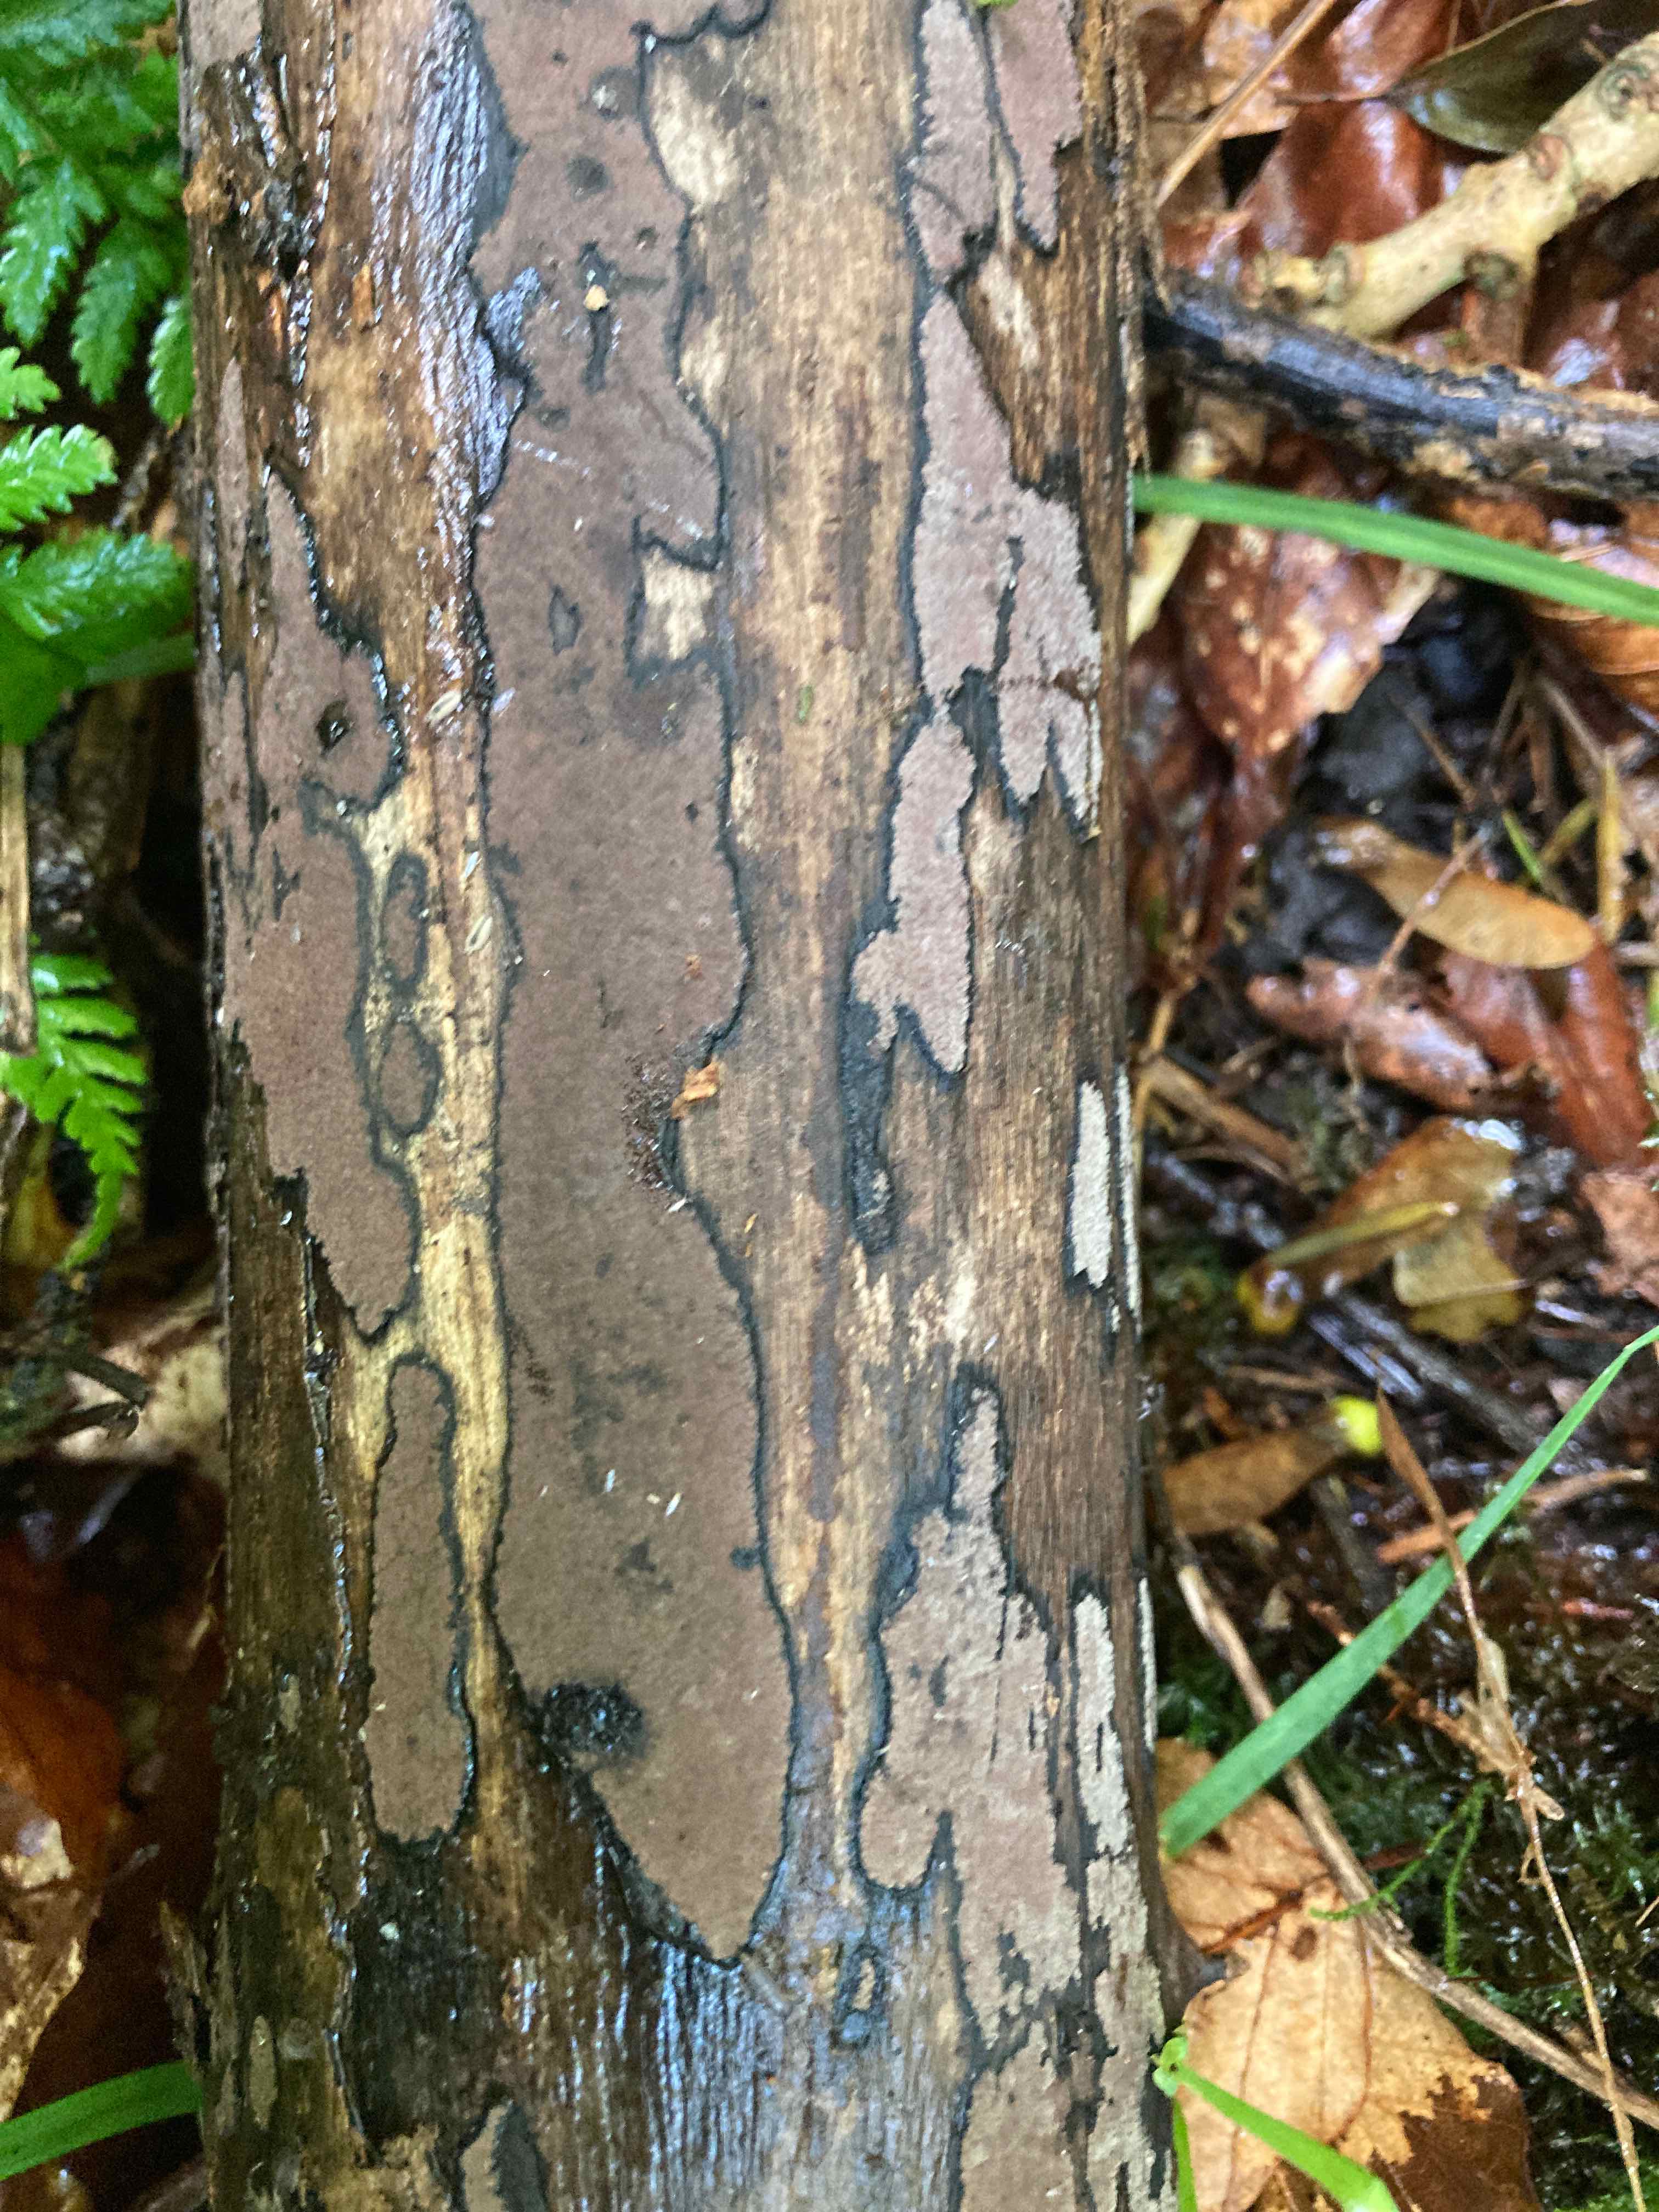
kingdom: Fungi
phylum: Ascomycota
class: Sordariomycetes
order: Xylariales
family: Hypoxylaceae
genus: Hypoxylon
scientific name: Hypoxylon petriniae
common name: nedsænket kulbær
